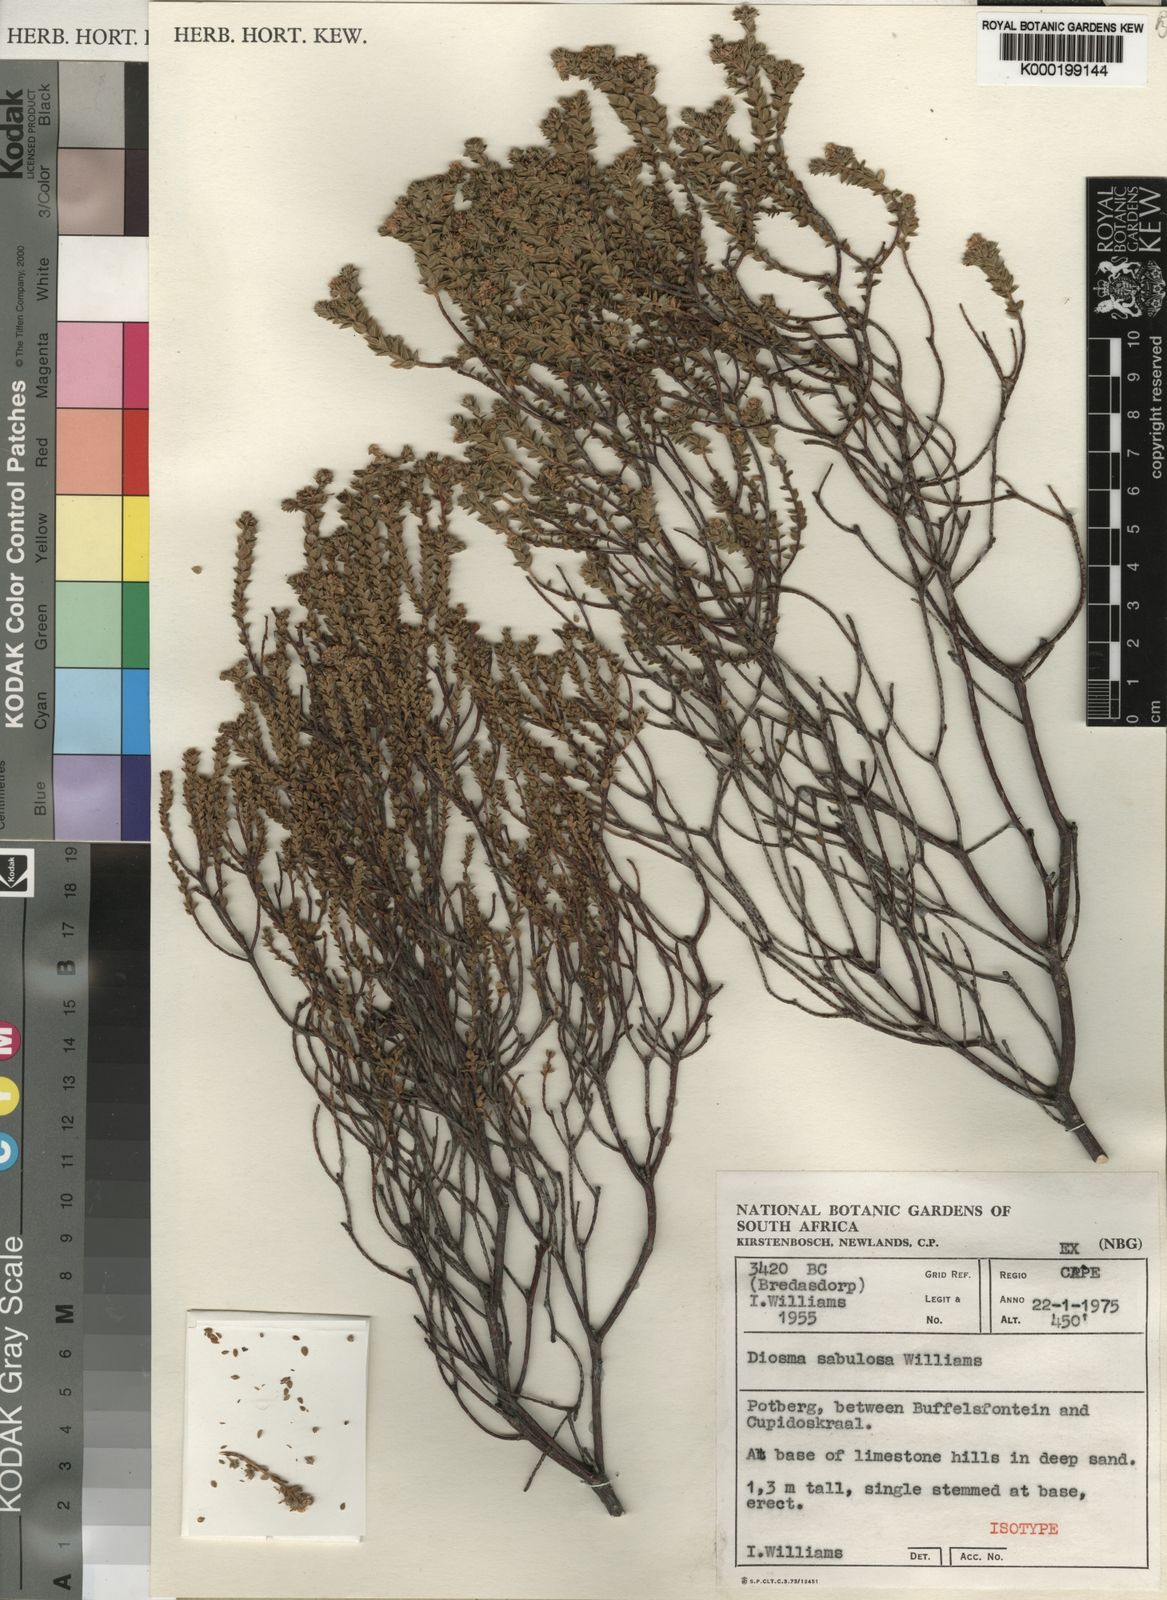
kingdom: Plantae
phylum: Tracheophyta
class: Magnoliopsida
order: Sapindales
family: Rutaceae
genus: Diosma
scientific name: Diosma sabulosa
